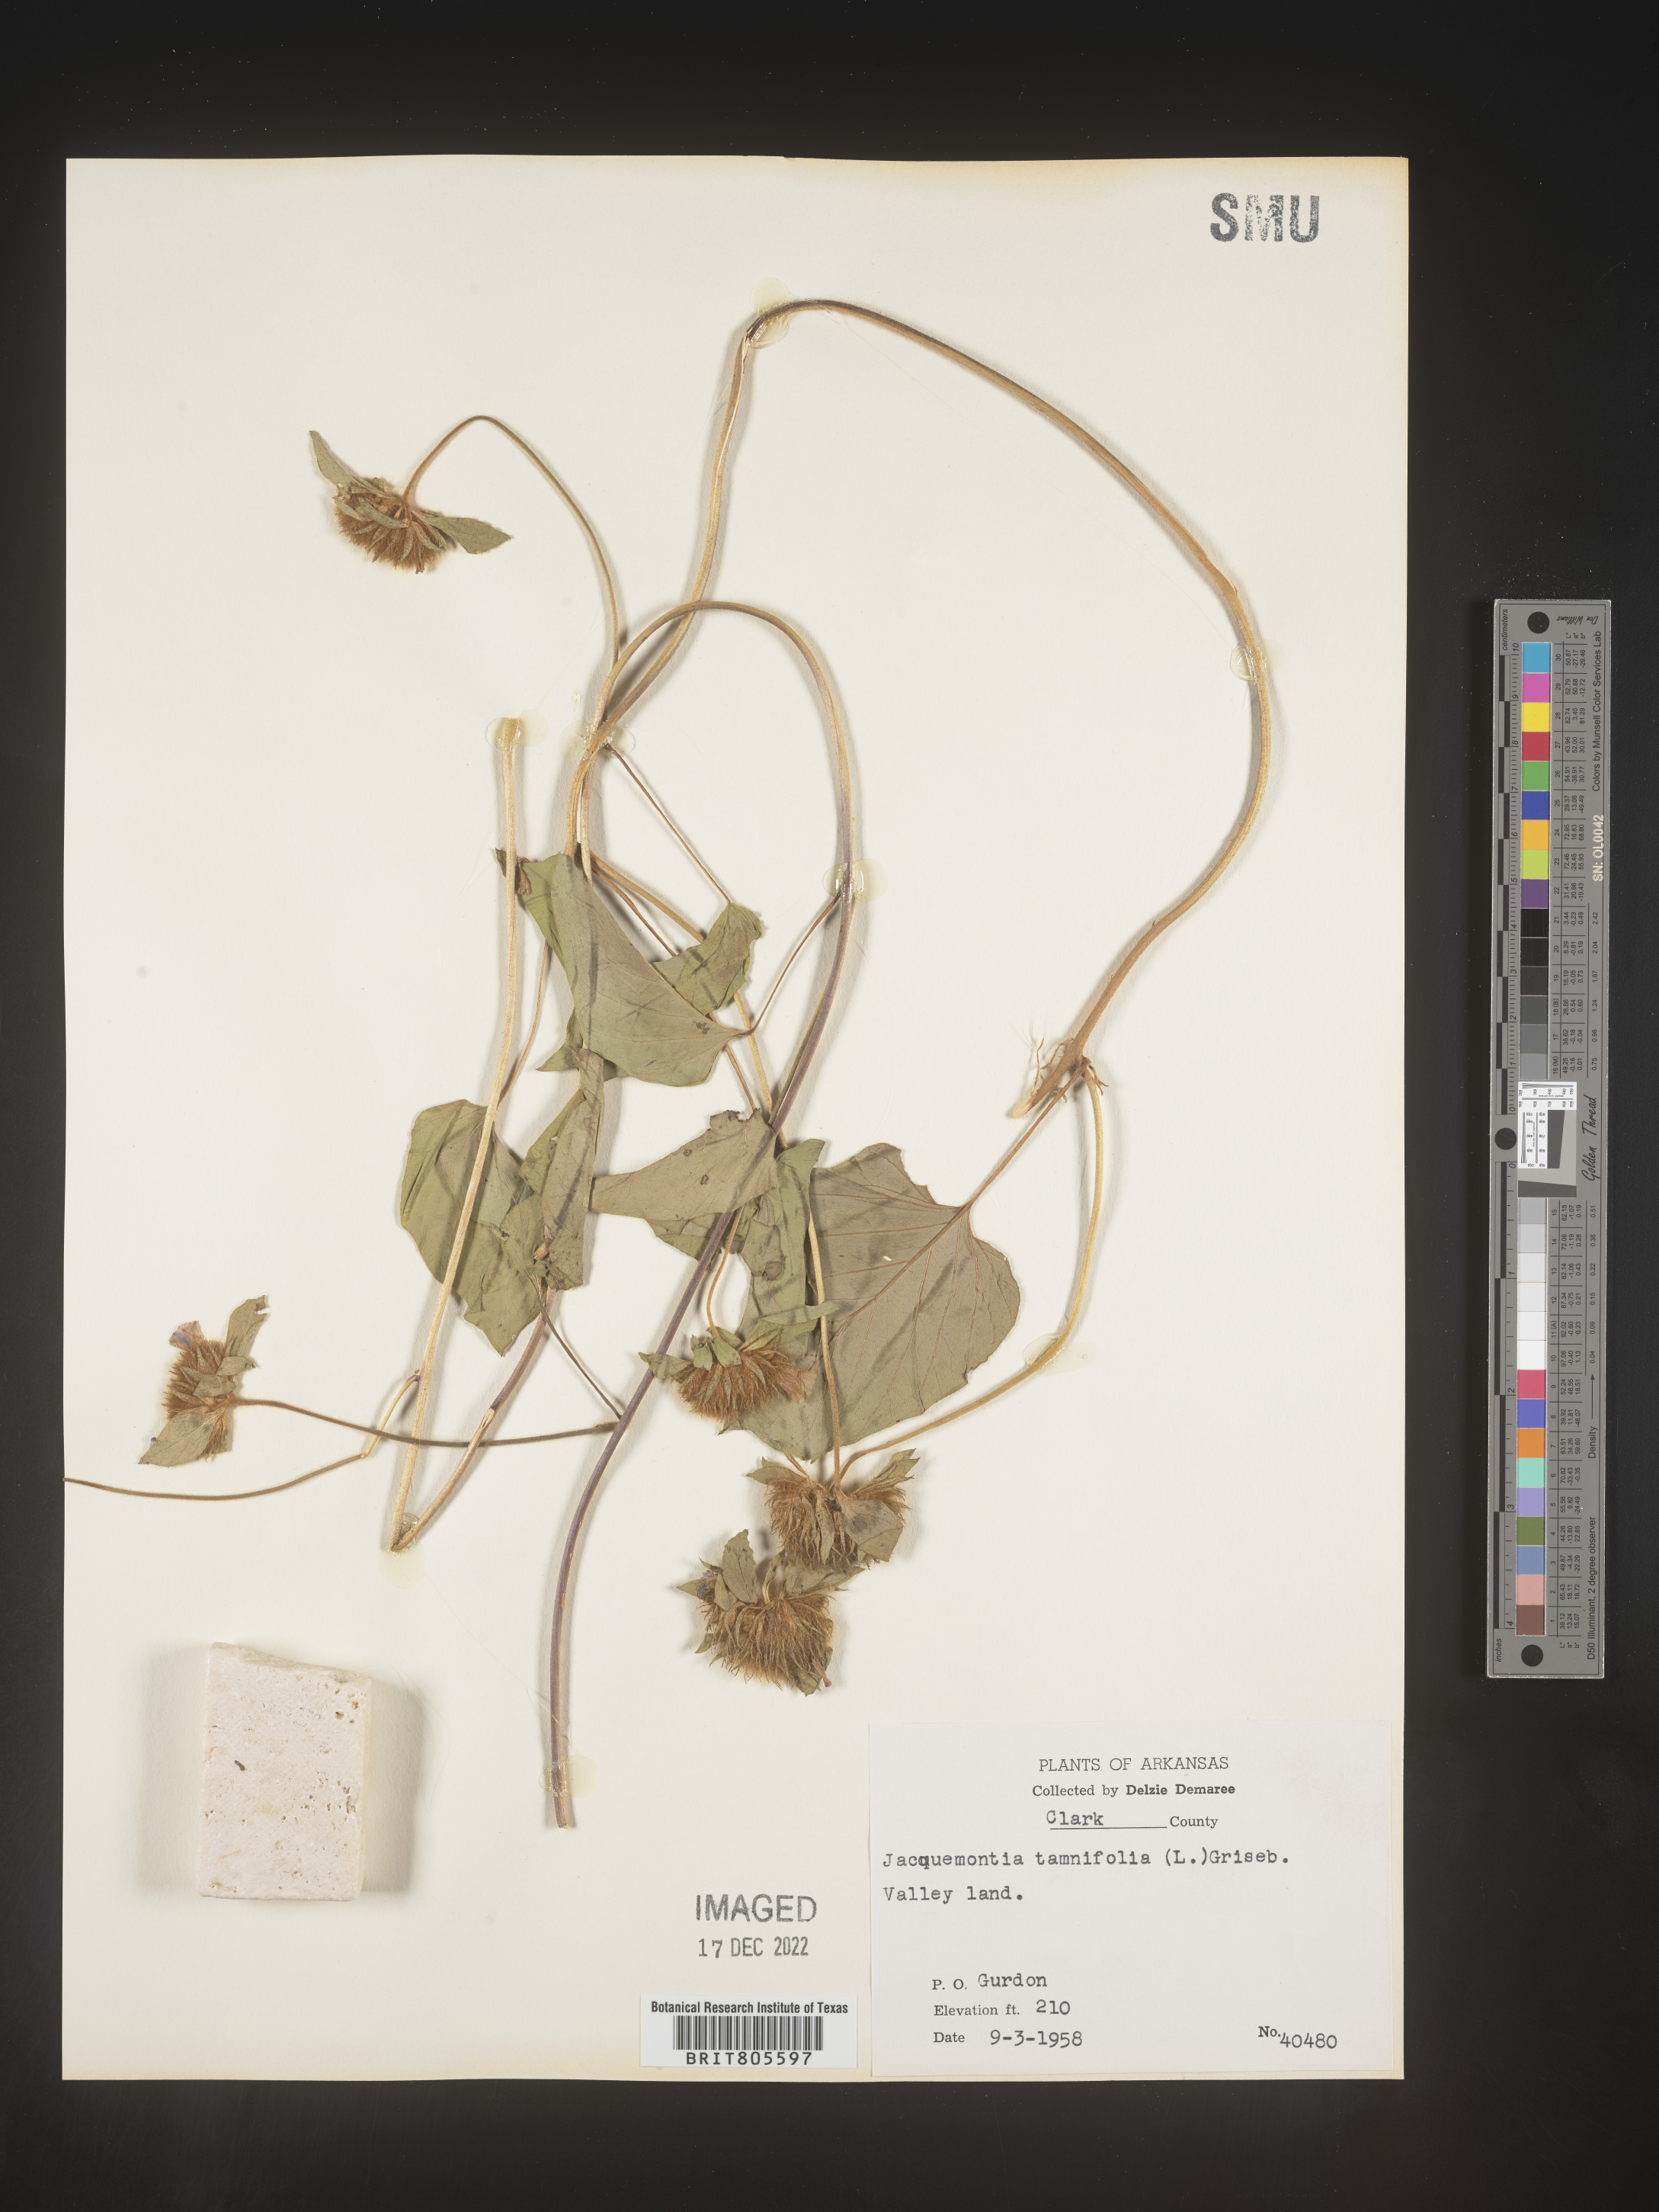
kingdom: Plantae
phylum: Tracheophyta
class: Magnoliopsida
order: Solanales
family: Convolvulaceae
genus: Jacquemontia
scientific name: Jacquemontia tamnifolia
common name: Hairy clustervine
